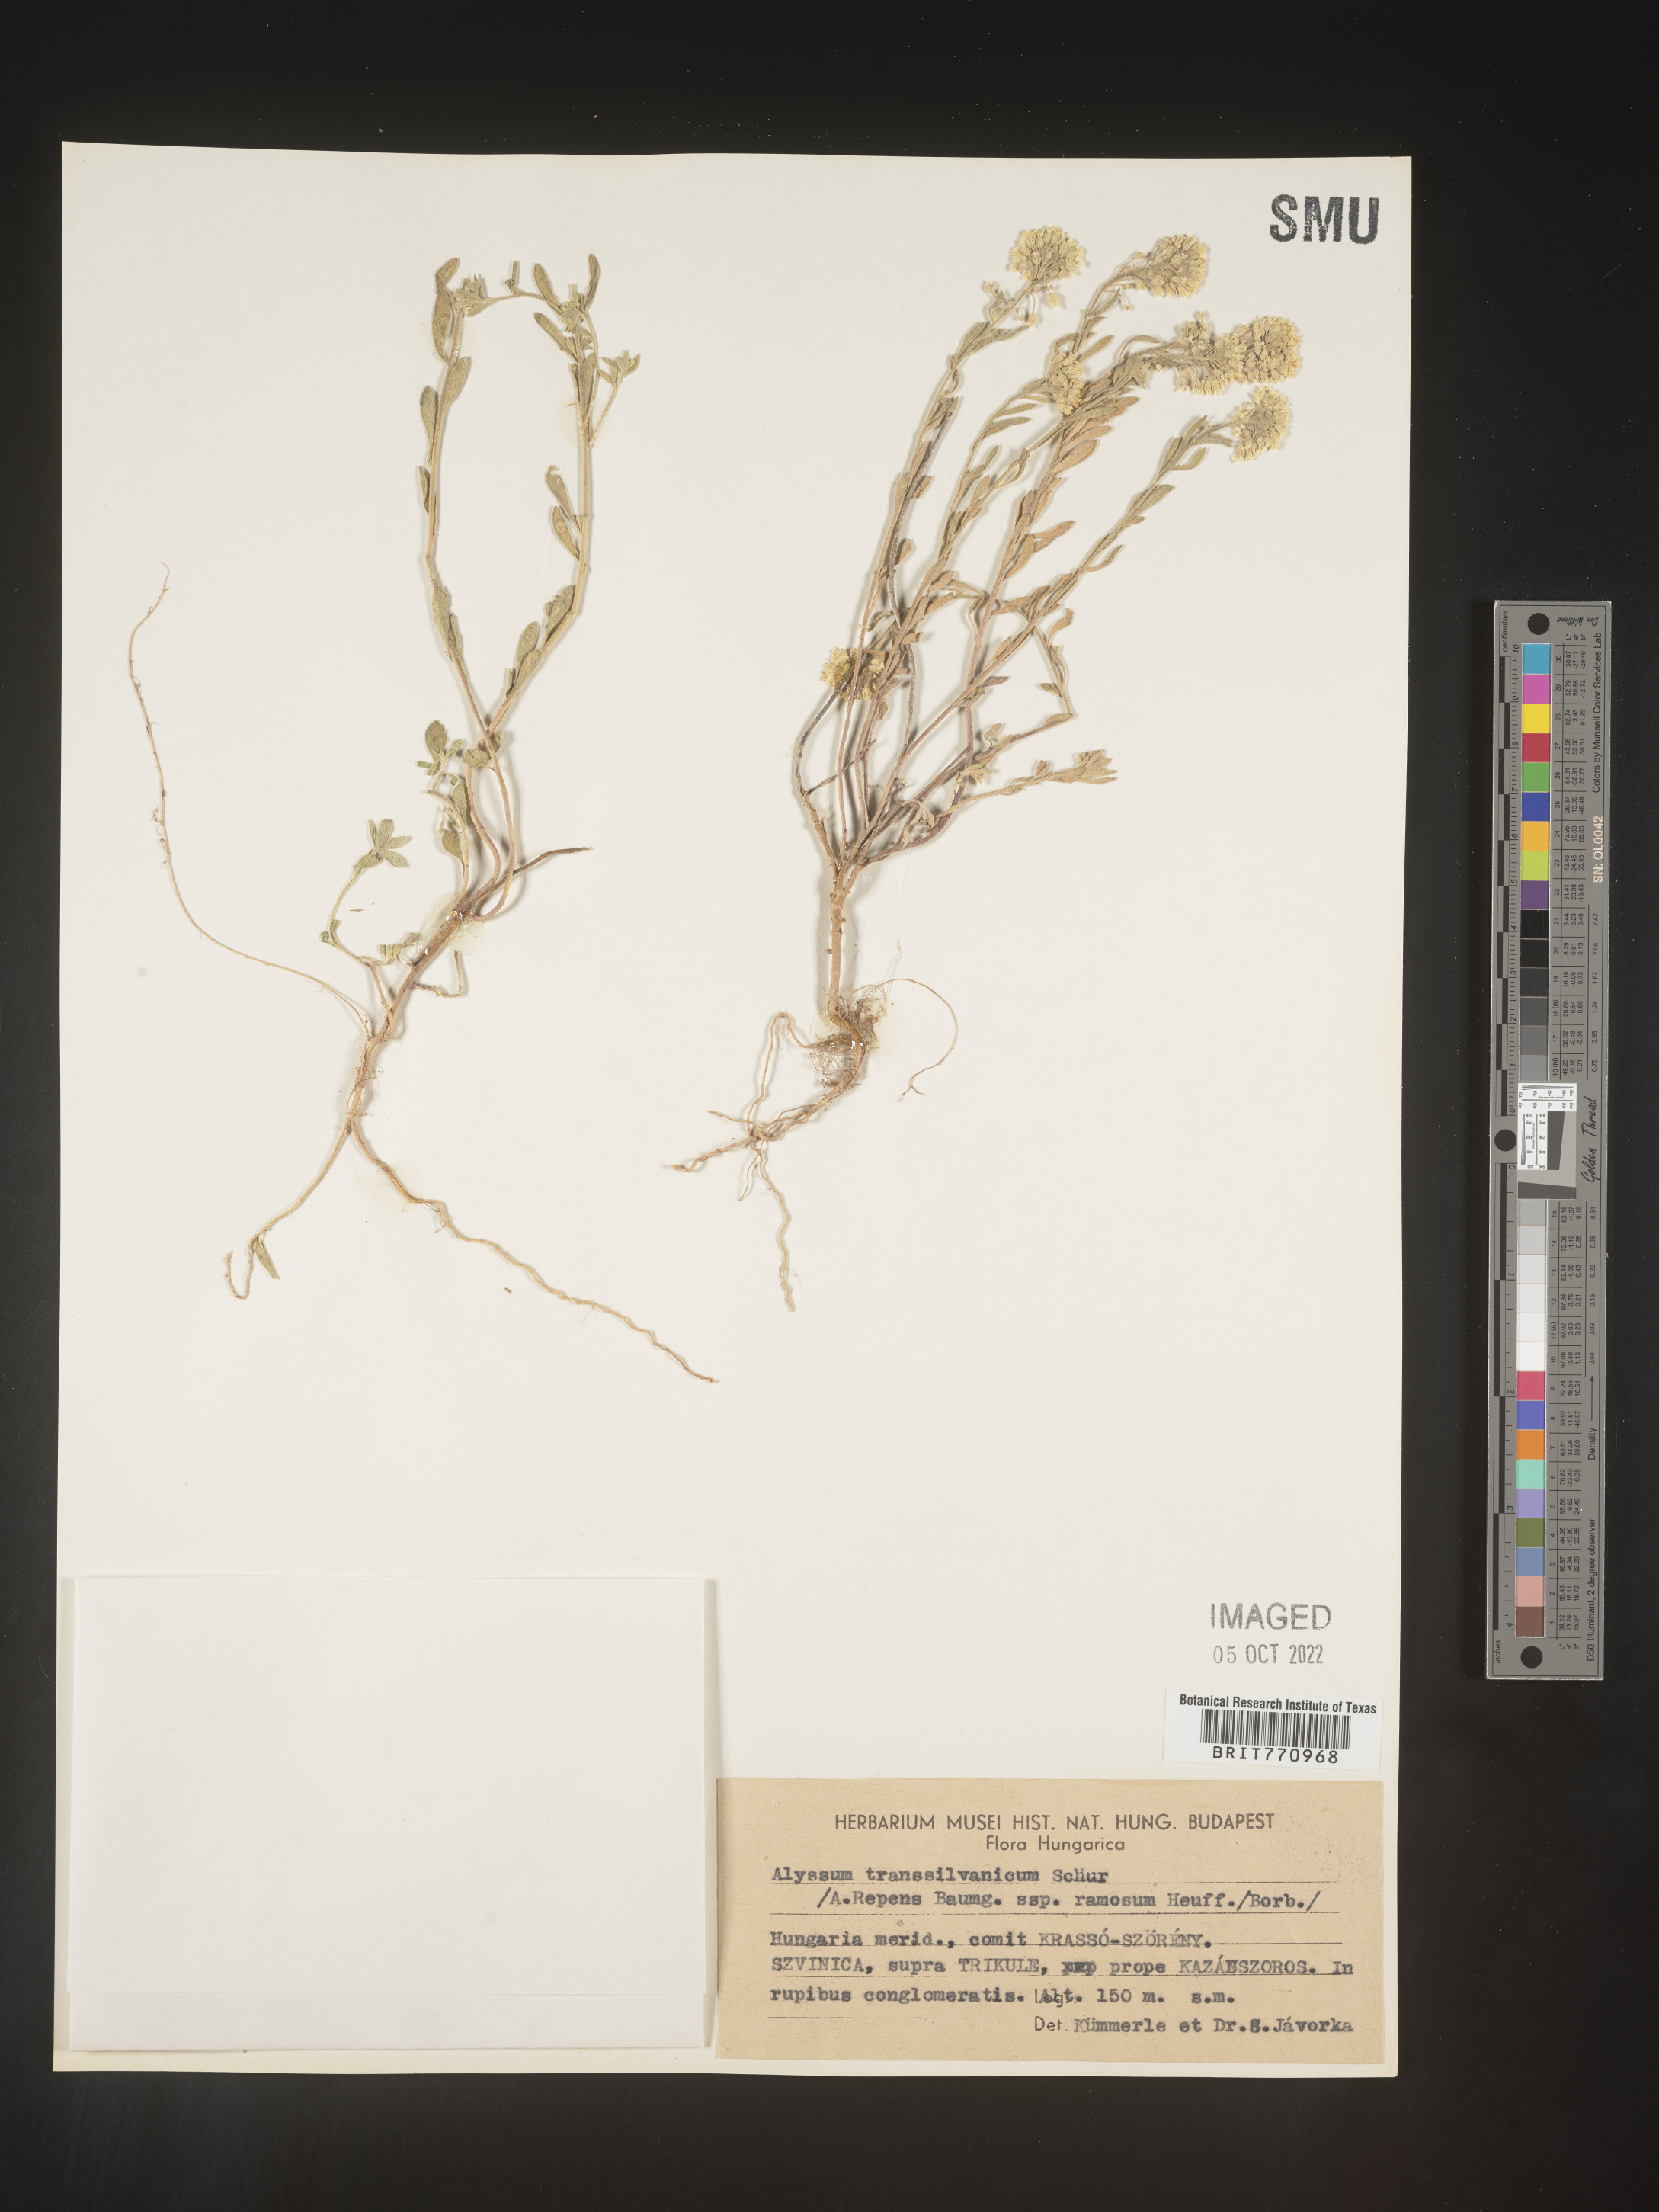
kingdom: Plantae
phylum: Tracheophyta
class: Magnoliopsida
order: Brassicales
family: Brassicaceae
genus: Alyssum
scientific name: Alyssum
